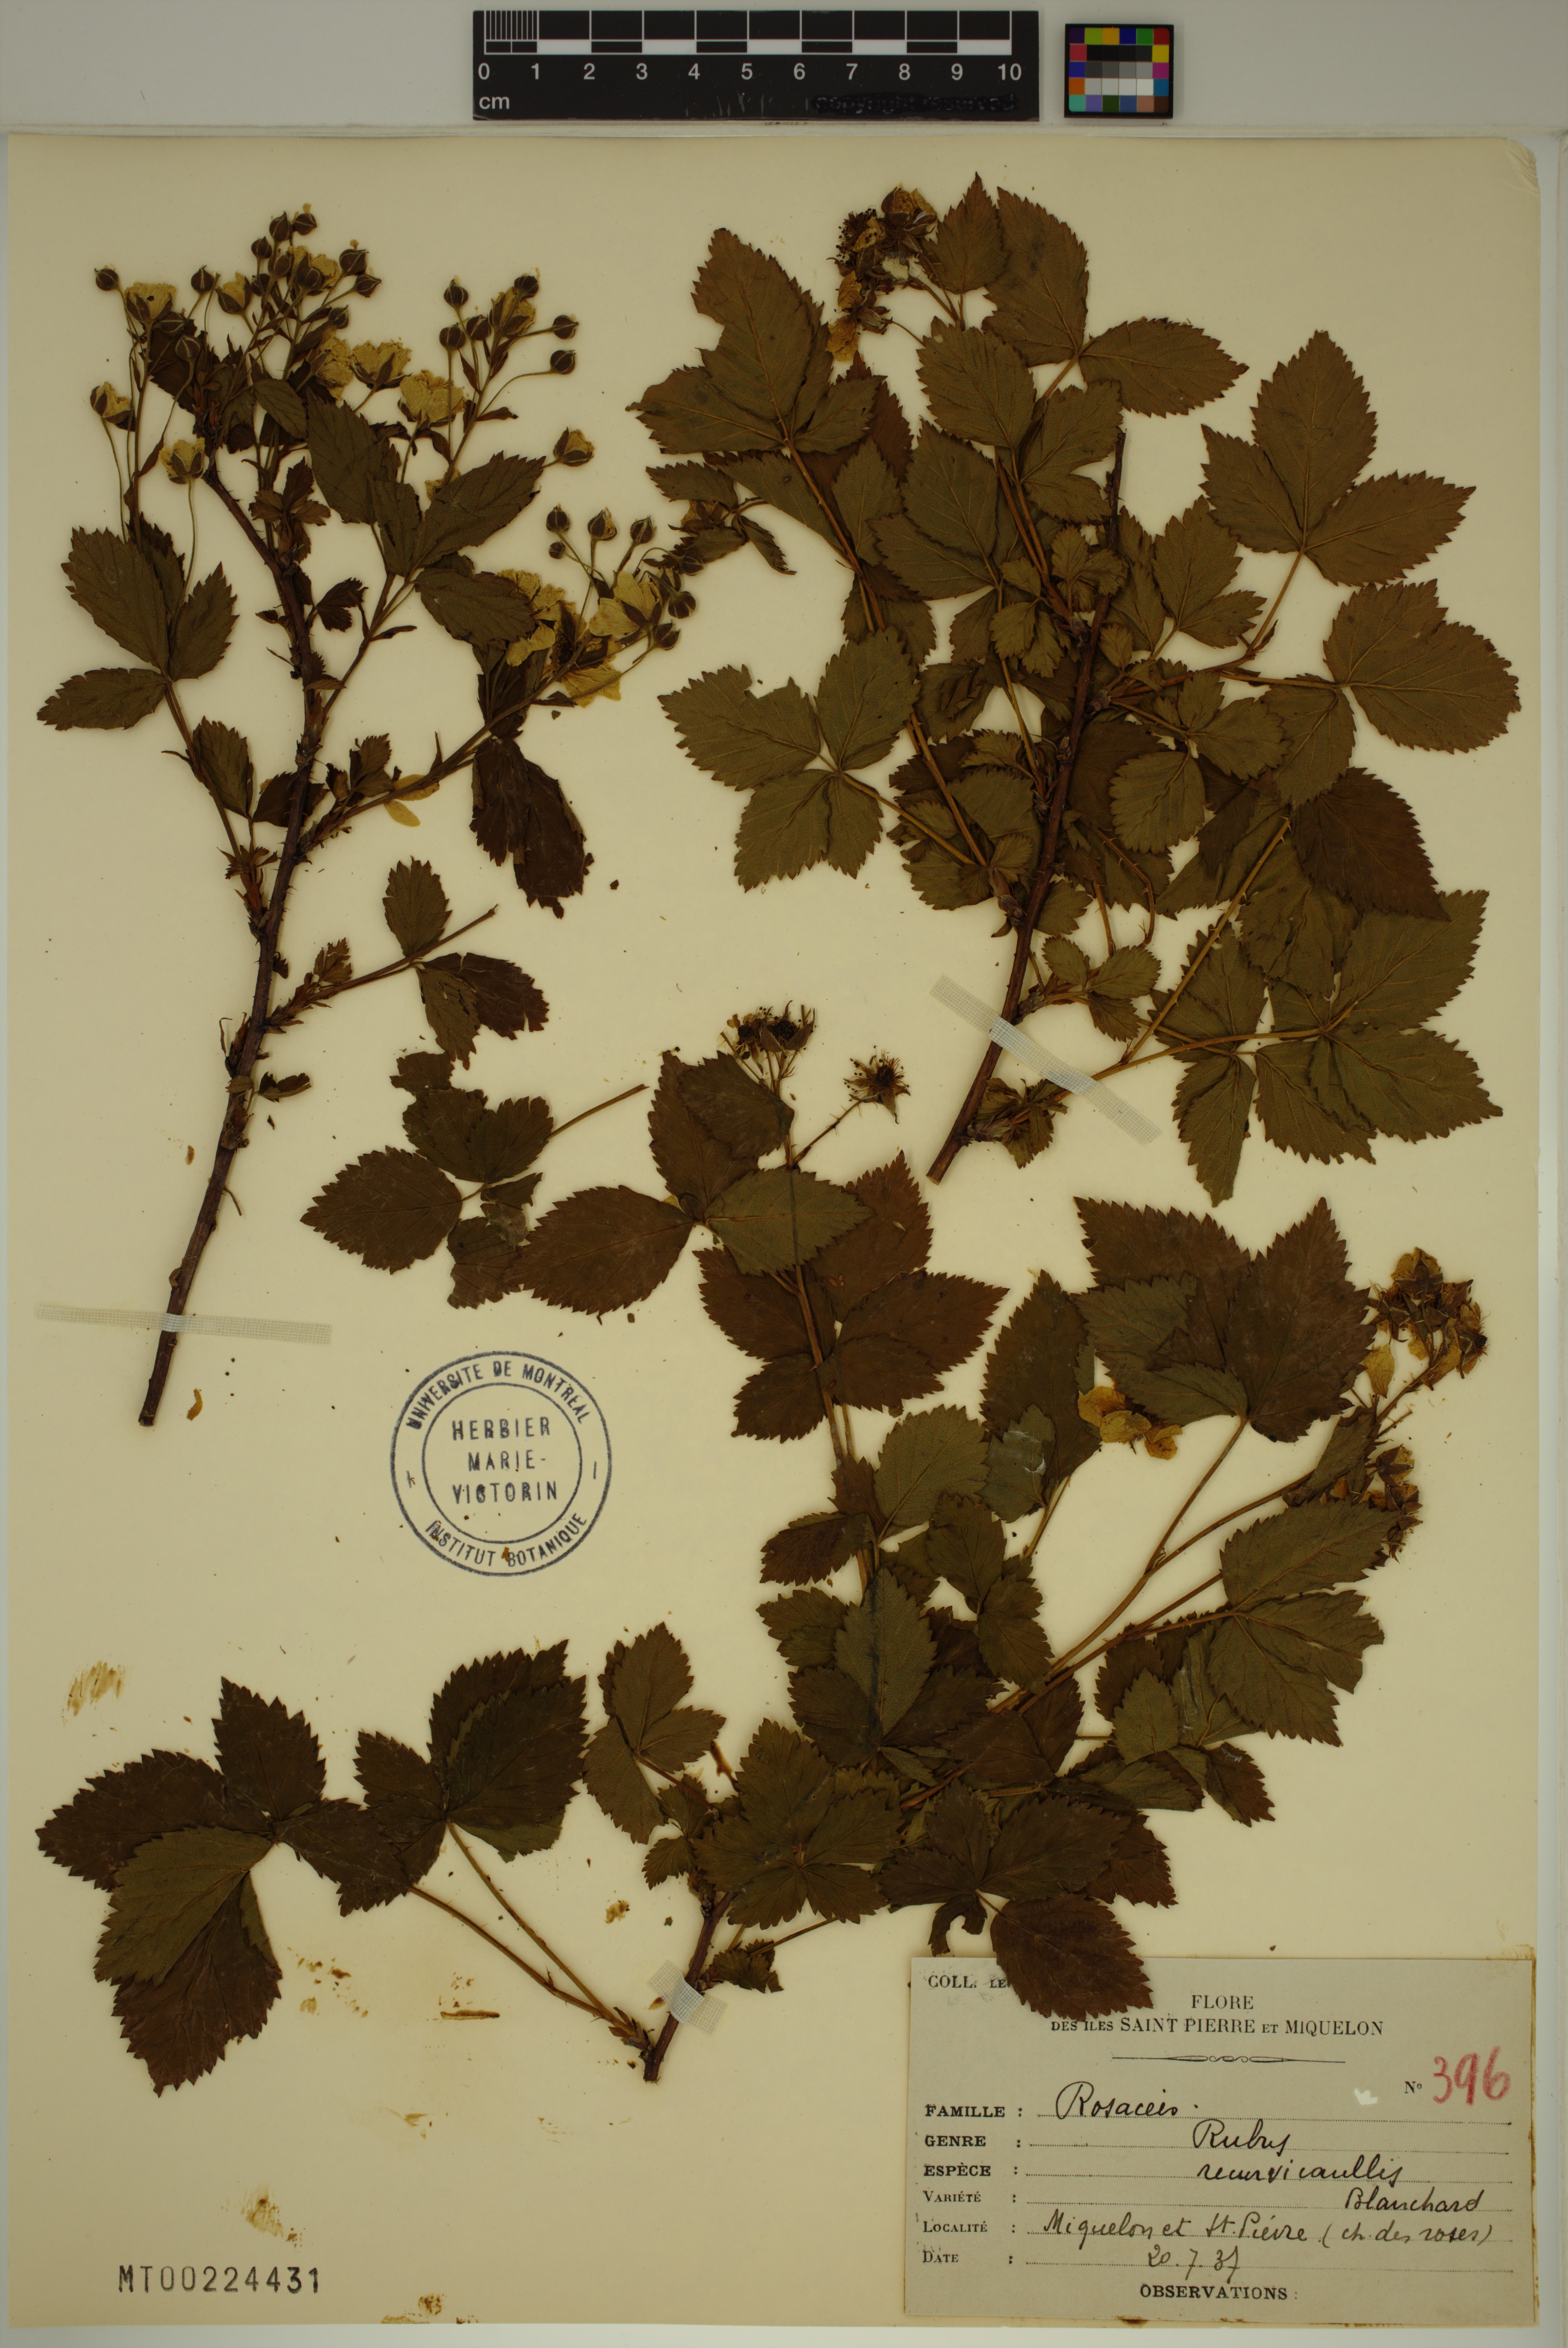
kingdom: Plantae
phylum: Tracheophyta
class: Magnoliopsida
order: Rosales
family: Rosaceae
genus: Rubus
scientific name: Rubus recurvicaulis
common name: Arching dewberry
